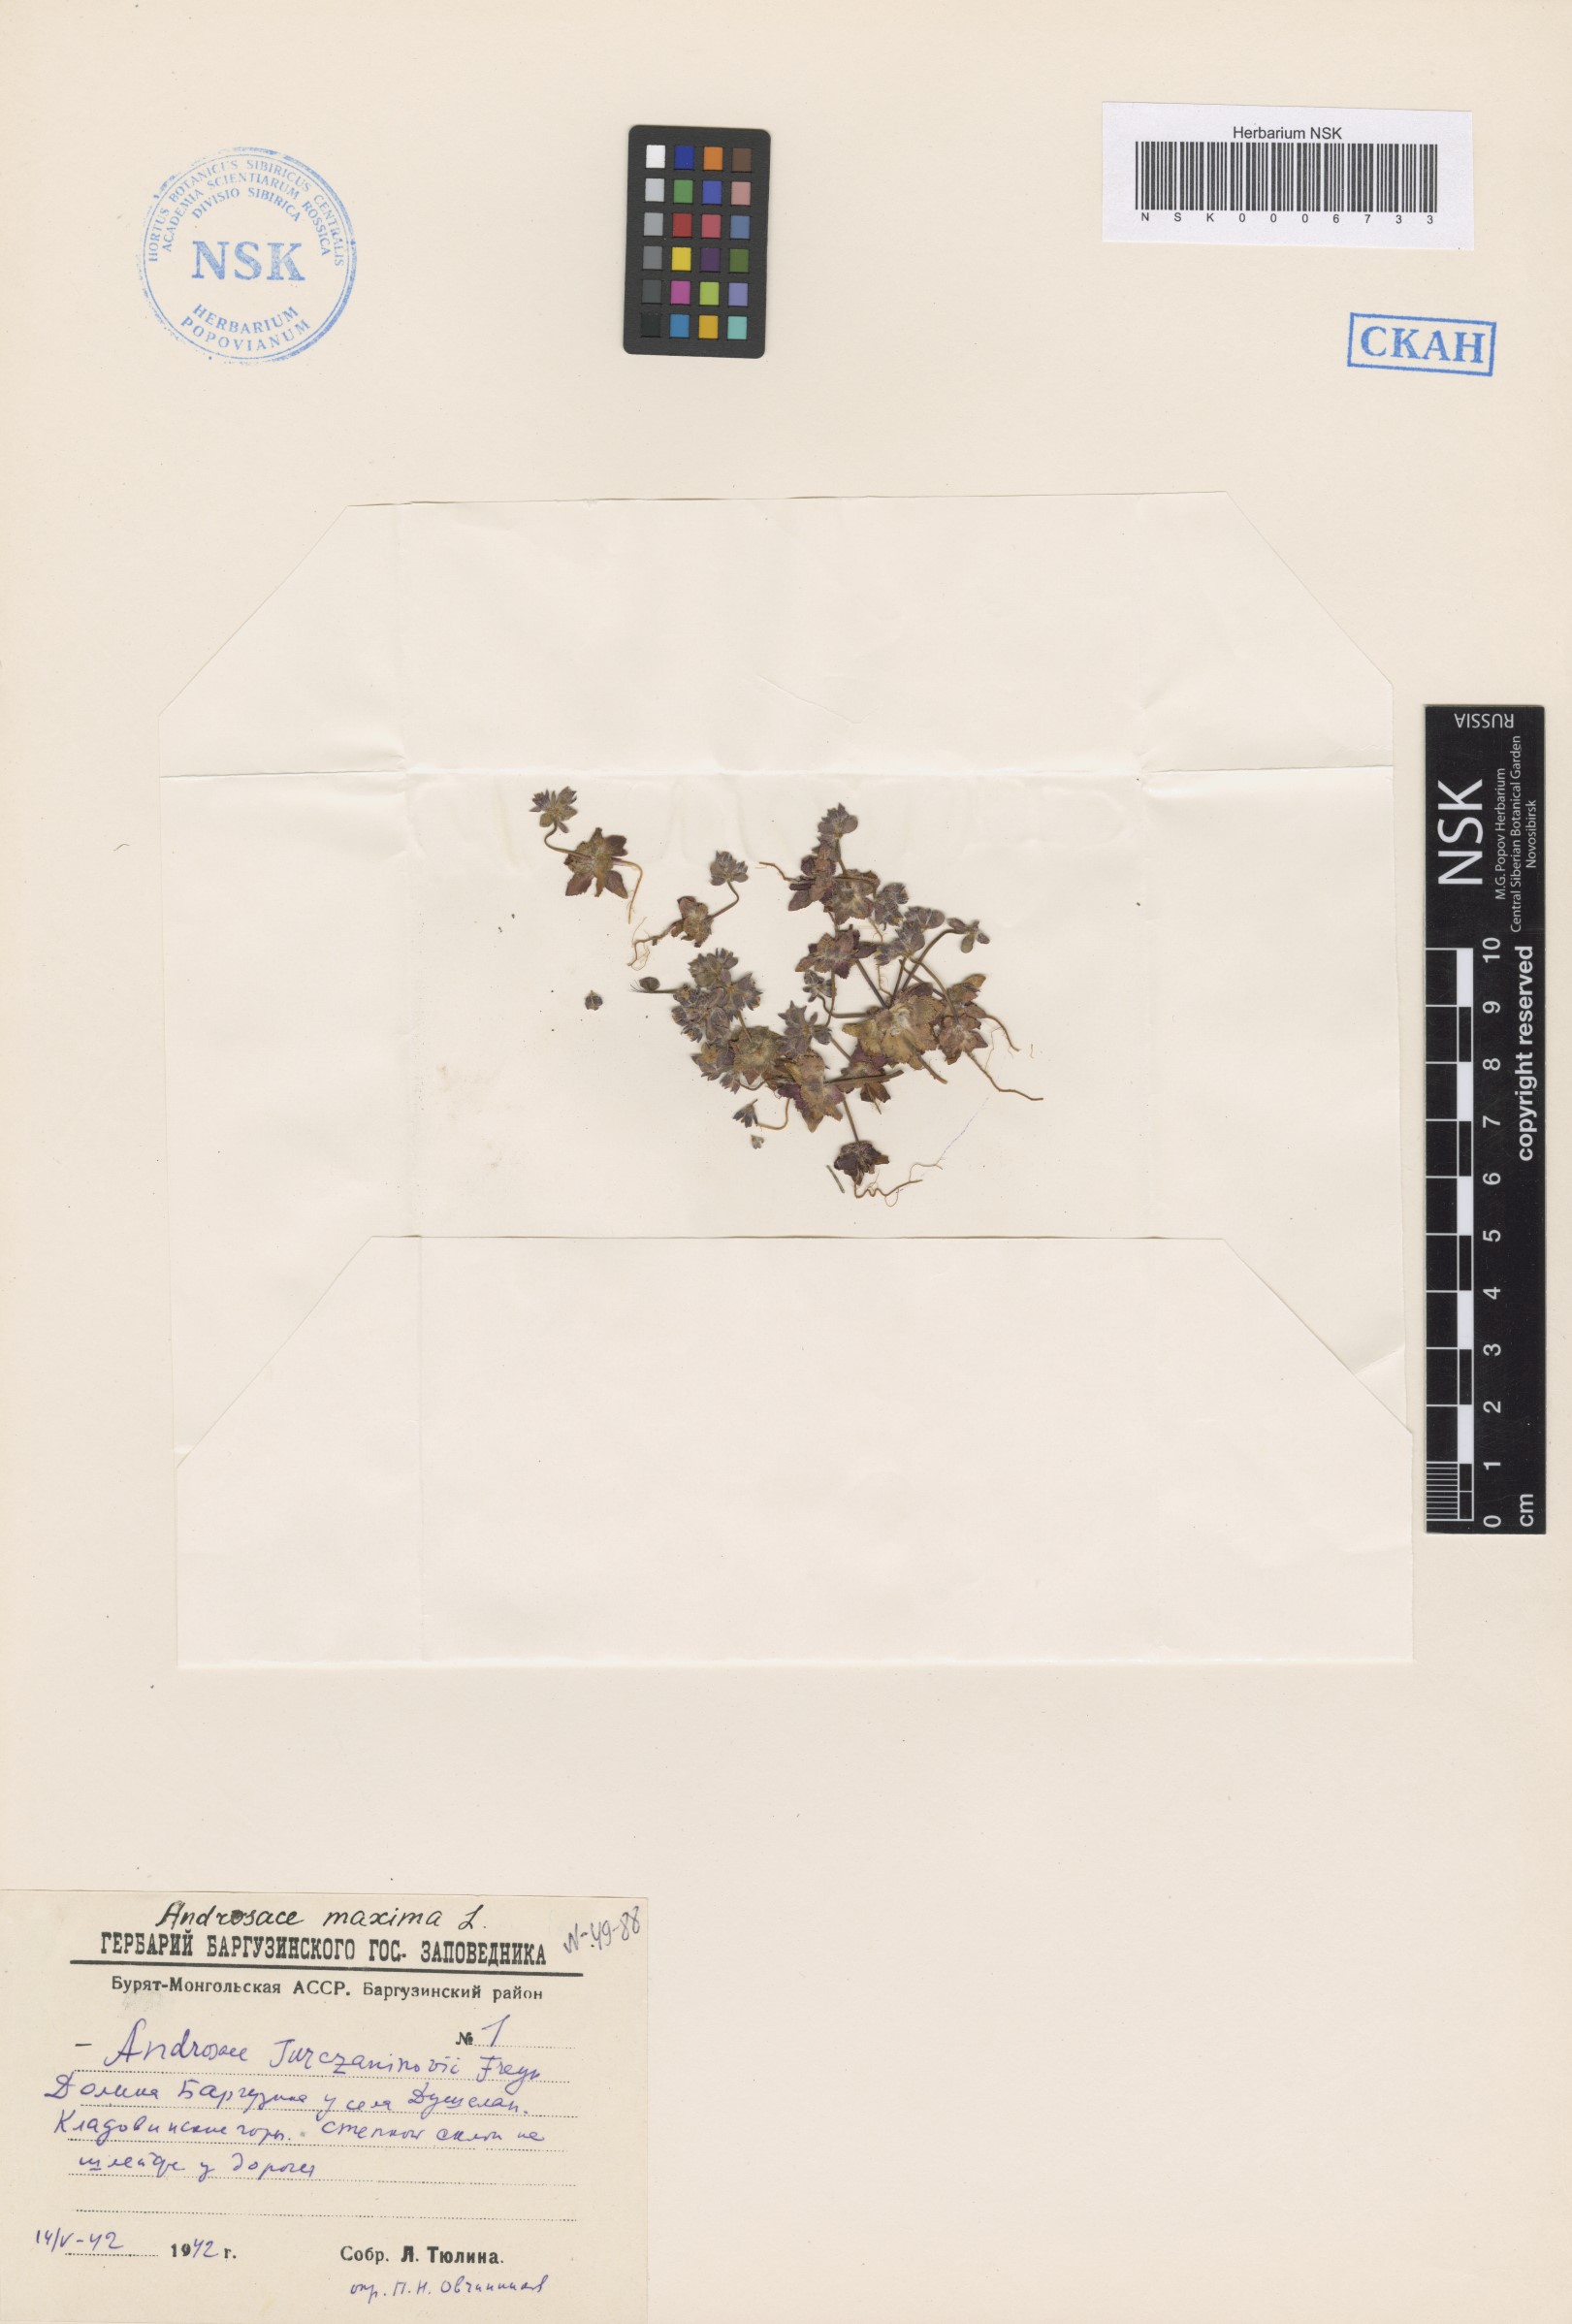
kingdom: Plantae
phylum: Tracheophyta
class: Magnoliopsida
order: Ericales
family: Primulaceae
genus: Androsace
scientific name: Androsace maxima
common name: Annual androsace
